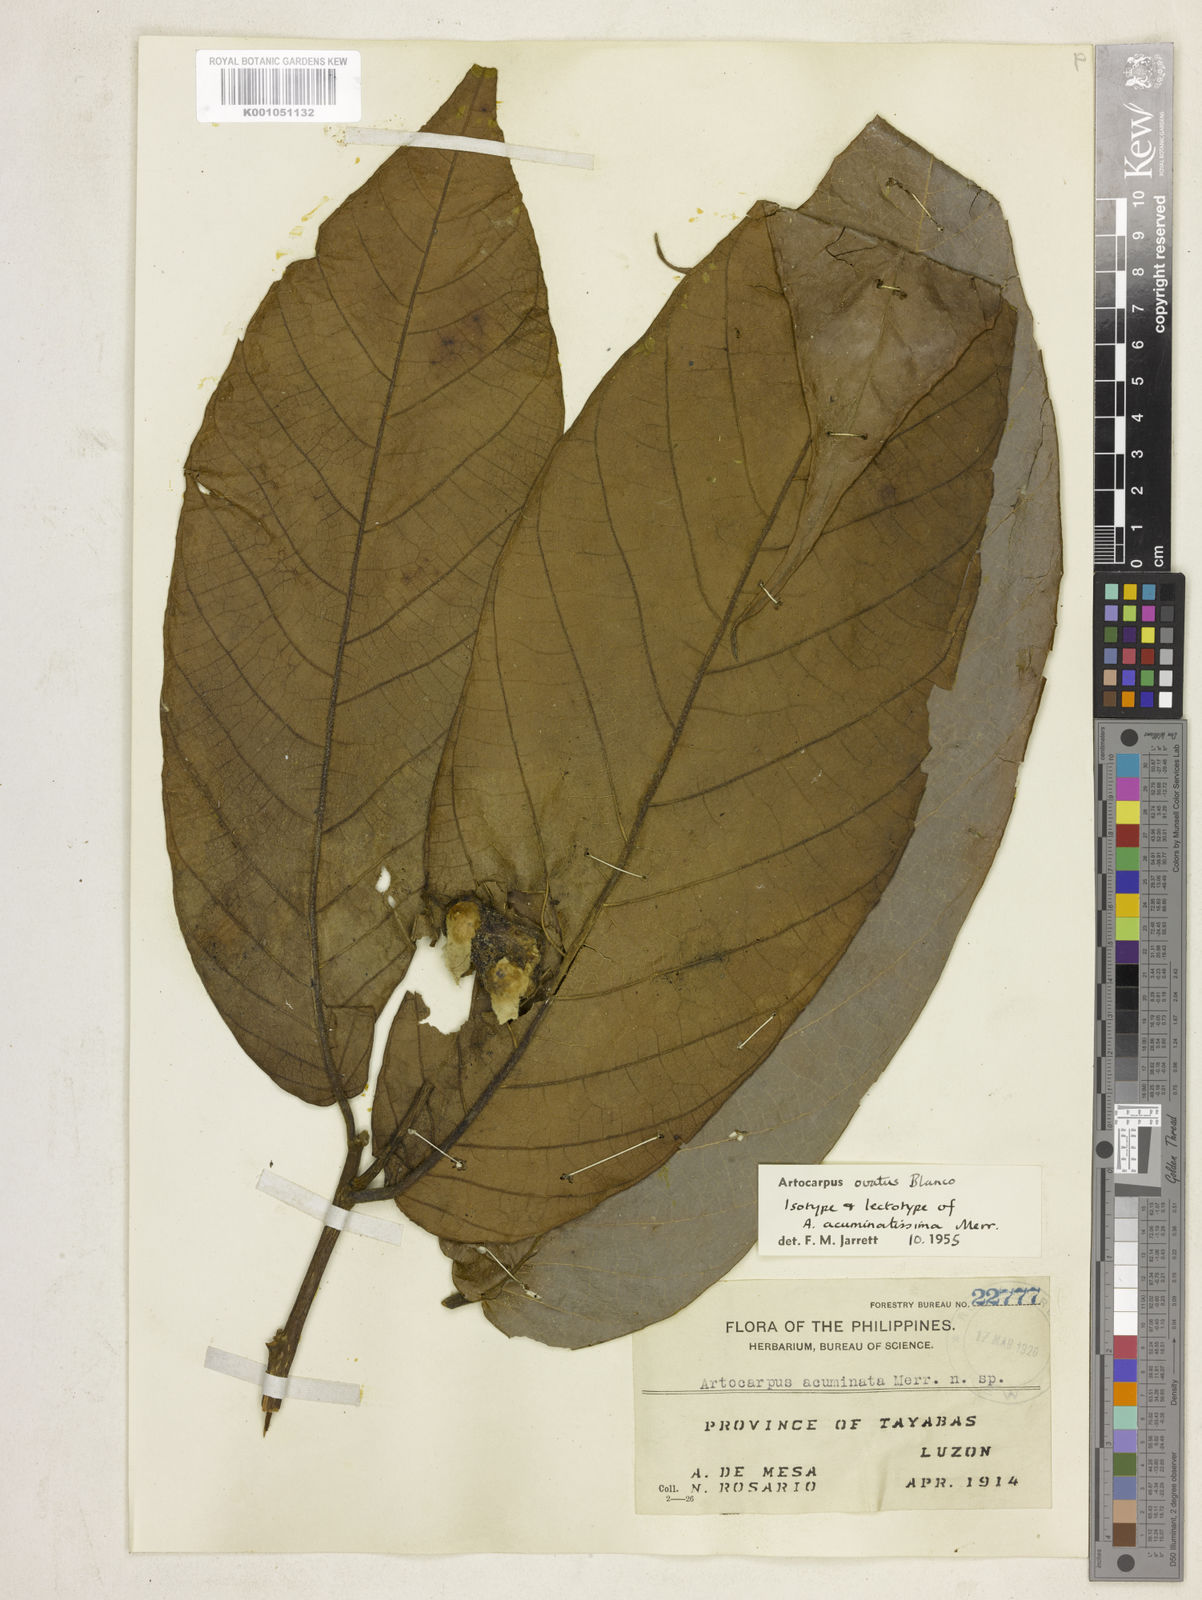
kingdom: Plantae
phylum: Tracheophyta
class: Magnoliopsida
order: Rosales
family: Moraceae
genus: Artocarpus
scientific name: Artocarpus lacucha
